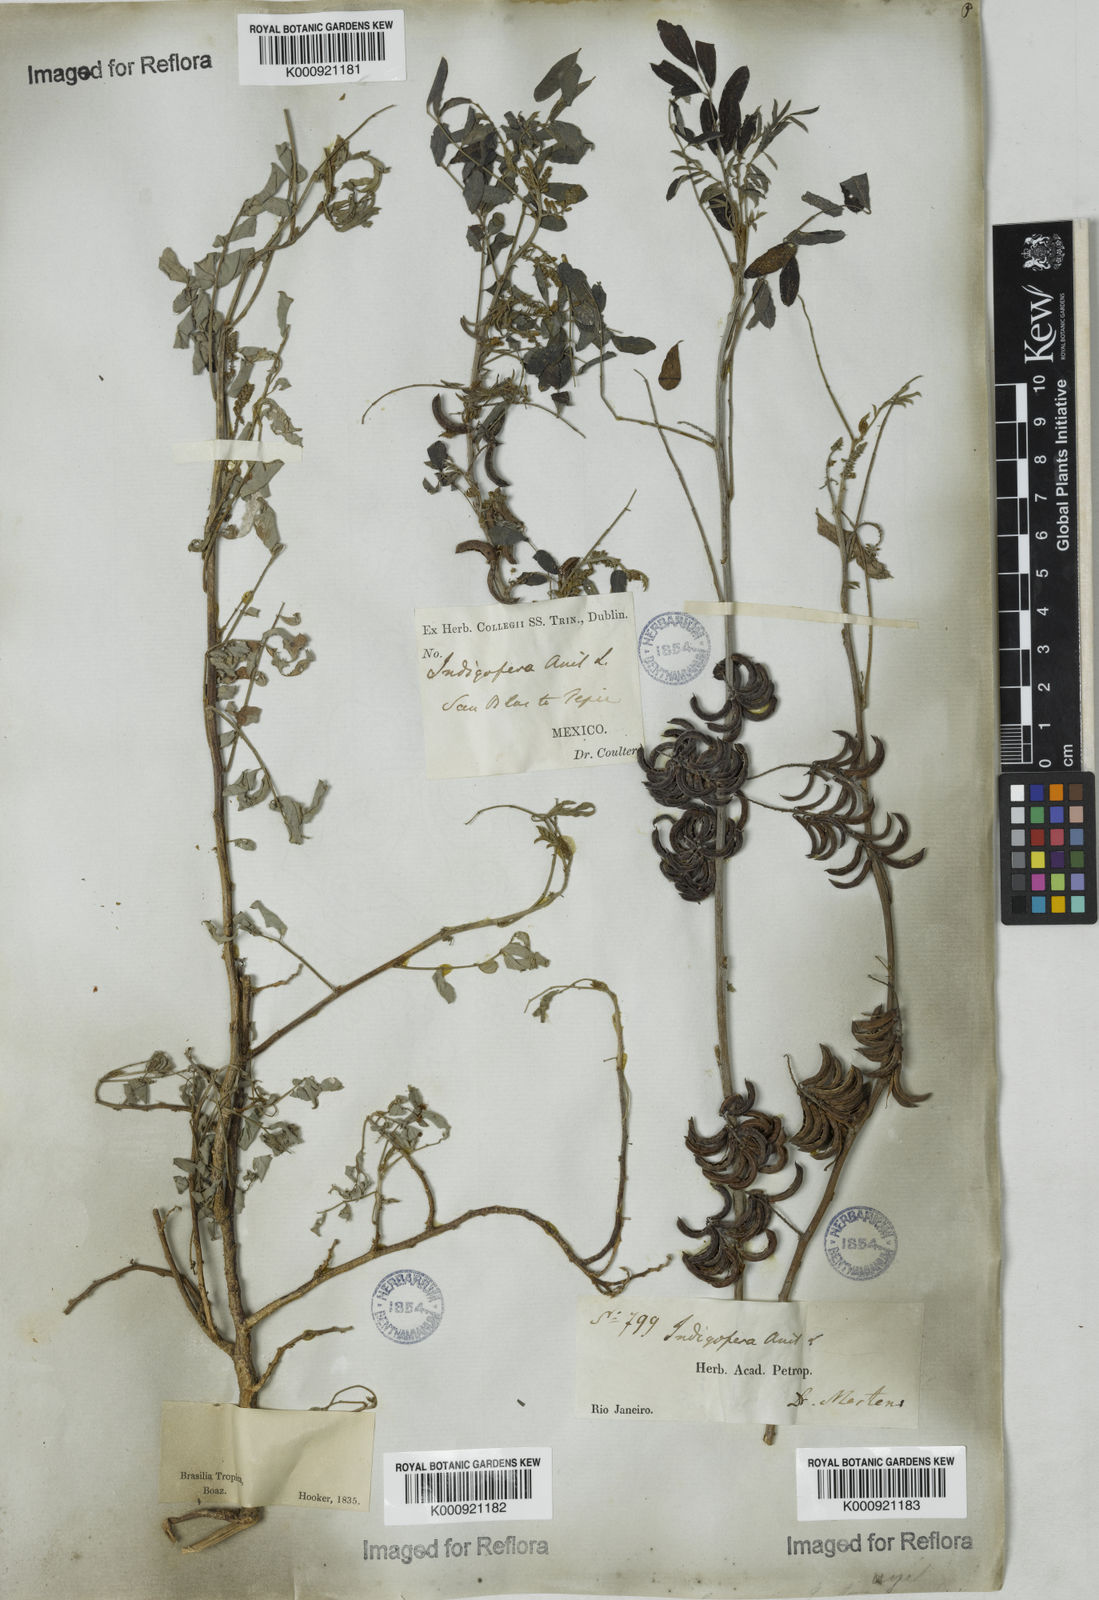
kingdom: Plantae
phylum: Tracheophyta
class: Magnoliopsida
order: Fabales
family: Fabaceae
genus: Indigofera
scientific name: Indigofera suffruticosa
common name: Anil de pasto
